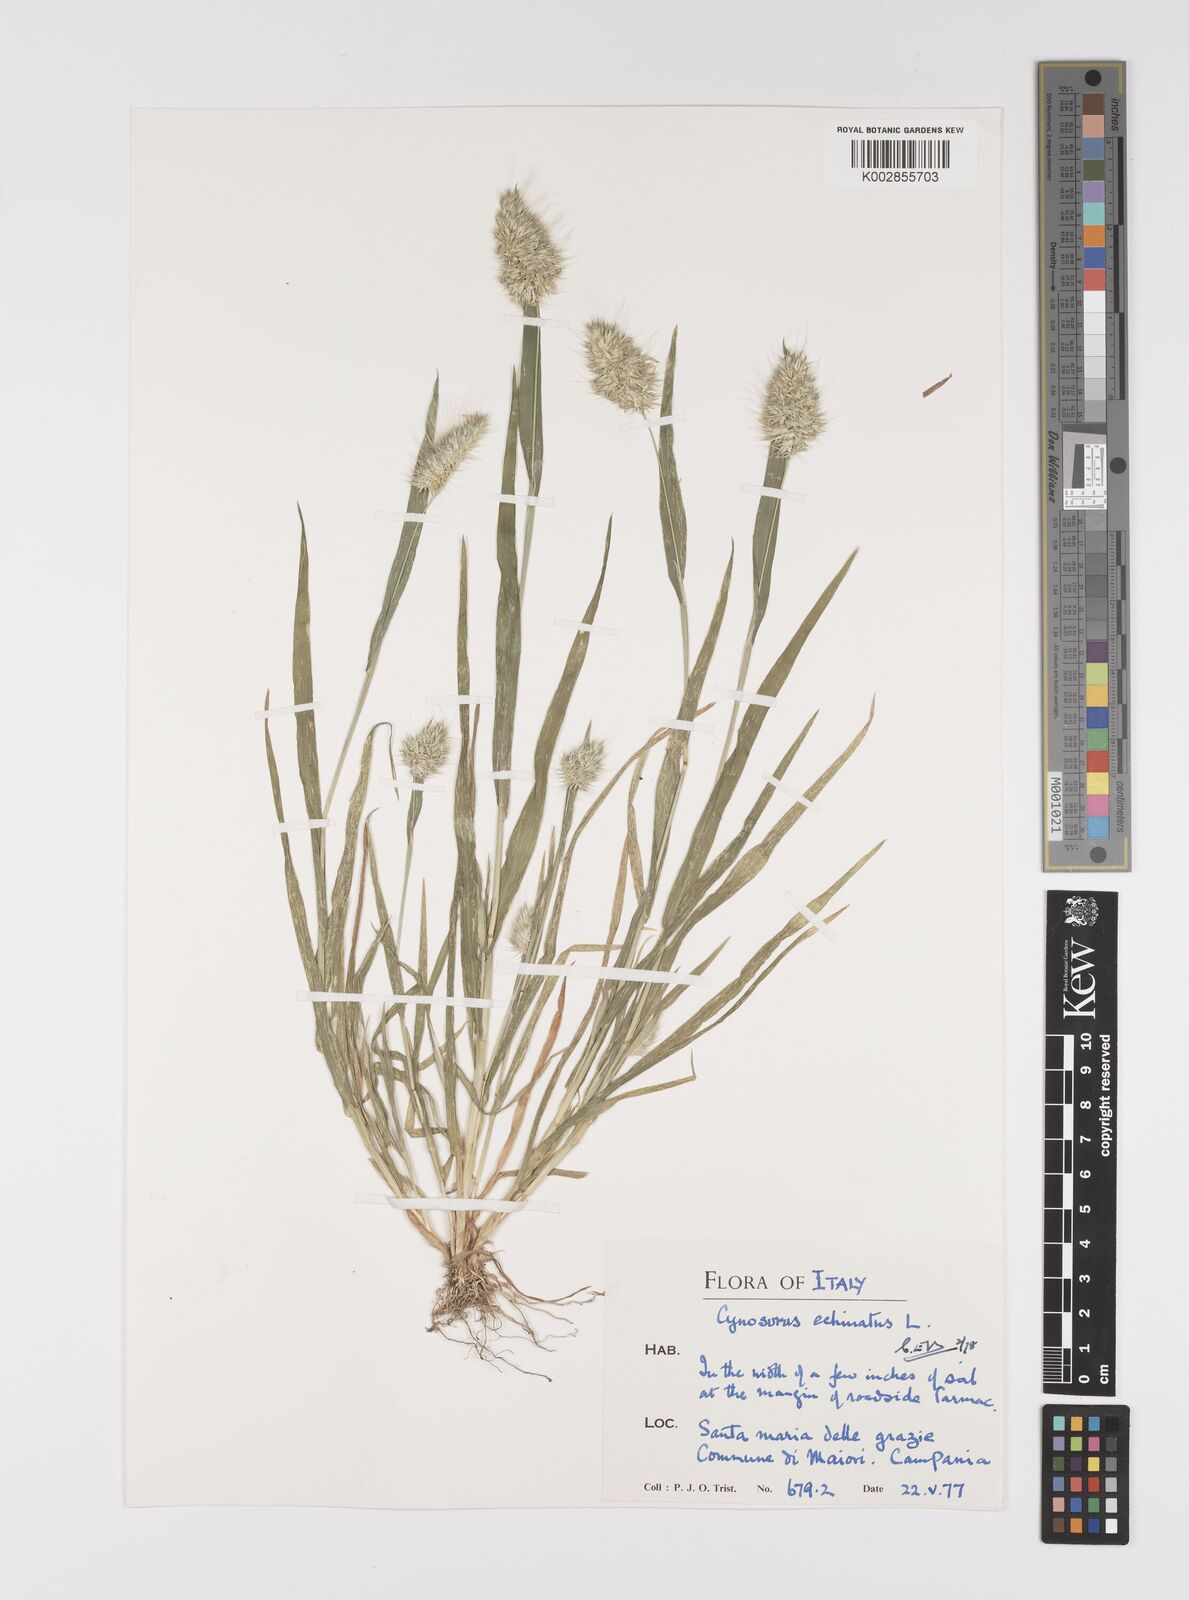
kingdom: Plantae
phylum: Tracheophyta
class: Liliopsida
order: Poales
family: Poaceae
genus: Cynosurus
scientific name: Cynosurus echinatus
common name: Rough dog's-tail
